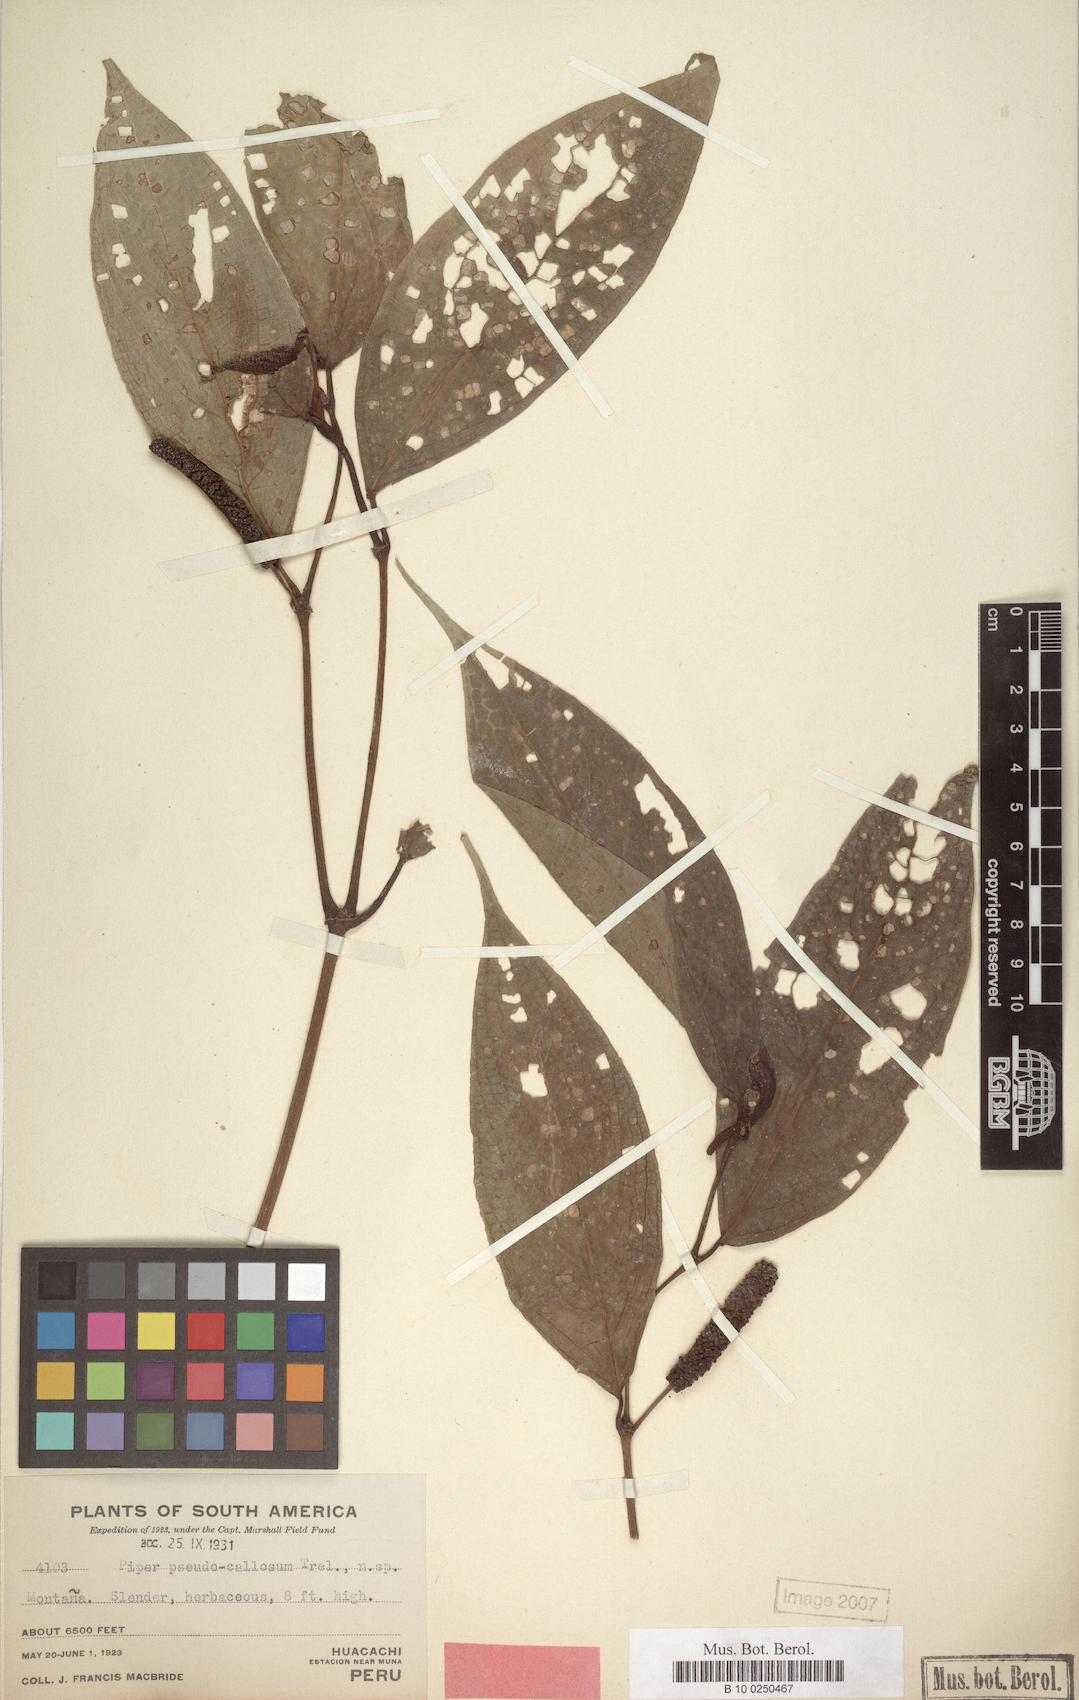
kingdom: Plantae
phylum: Tracheophyta
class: Magnoliopsida
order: Piperales
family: Piperaceae
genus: Piper
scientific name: Piper pseudocallosum
